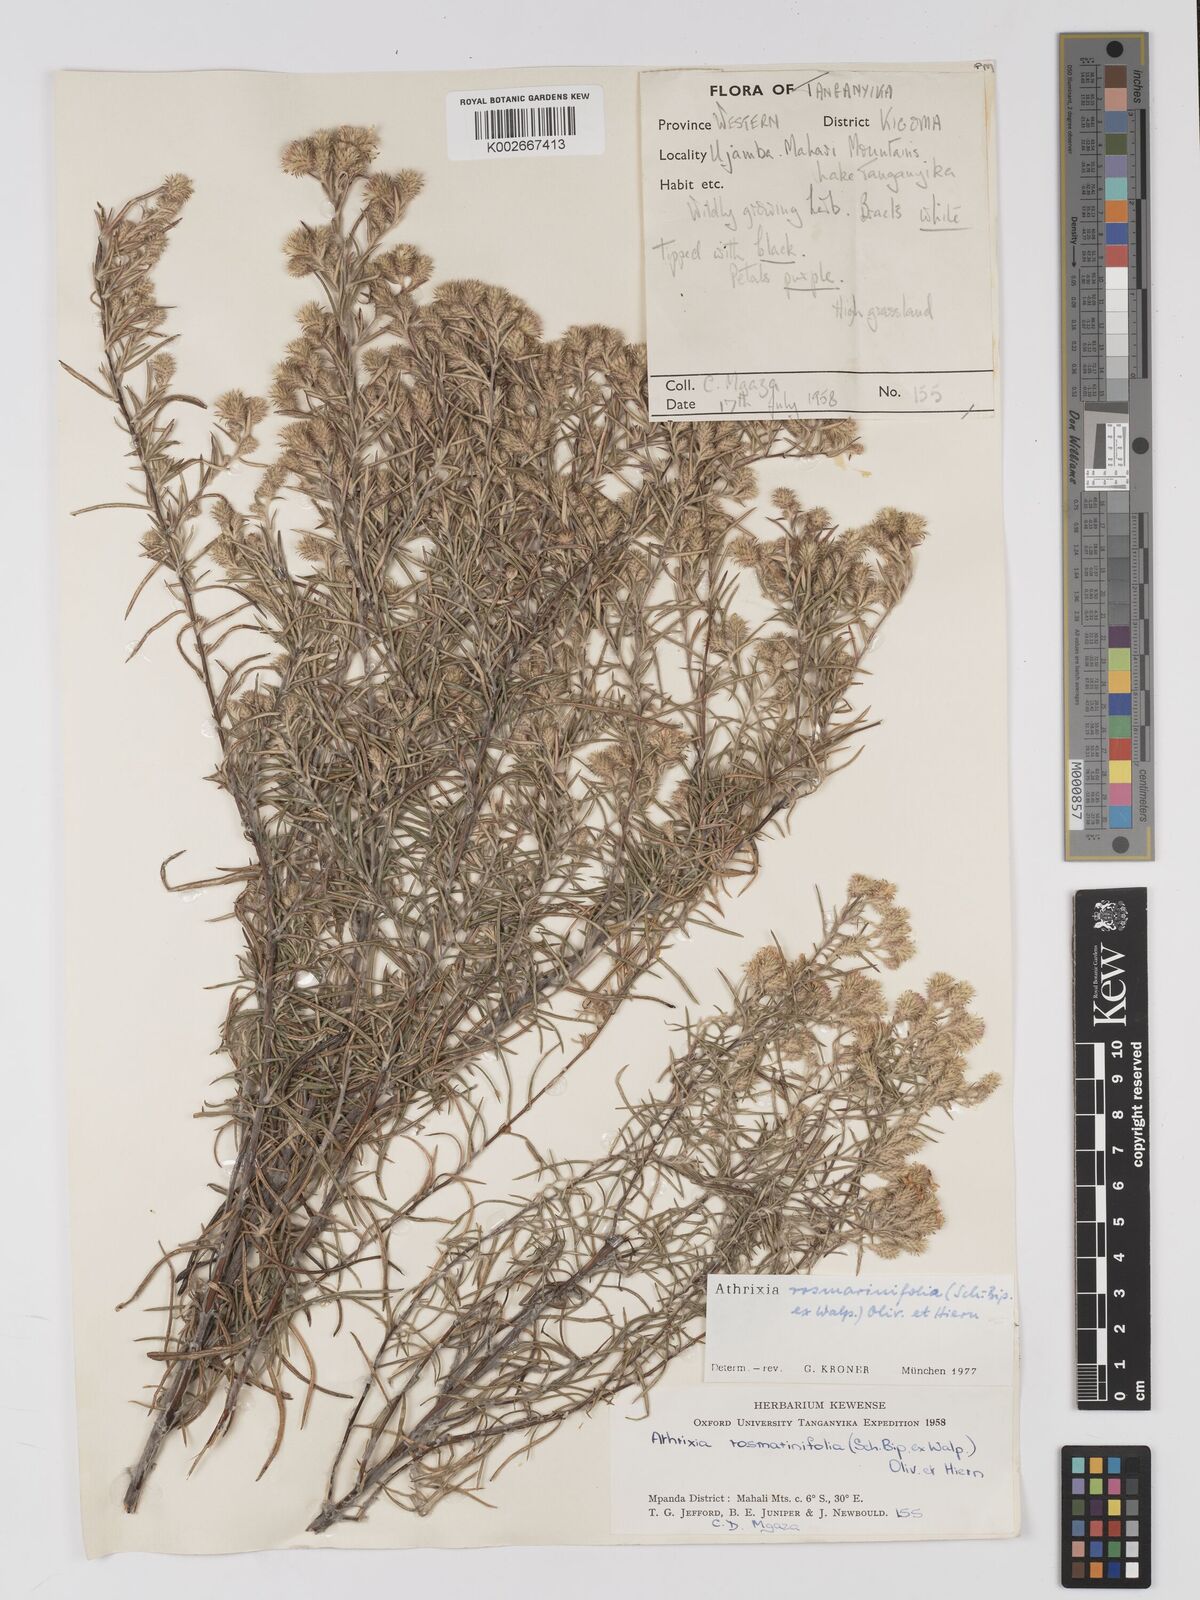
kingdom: Plantae
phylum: Tracheophyta
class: Magnoliopsida
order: Asterales
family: Asteraceae
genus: Athrixia
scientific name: Athrixia rosmarinifolia
